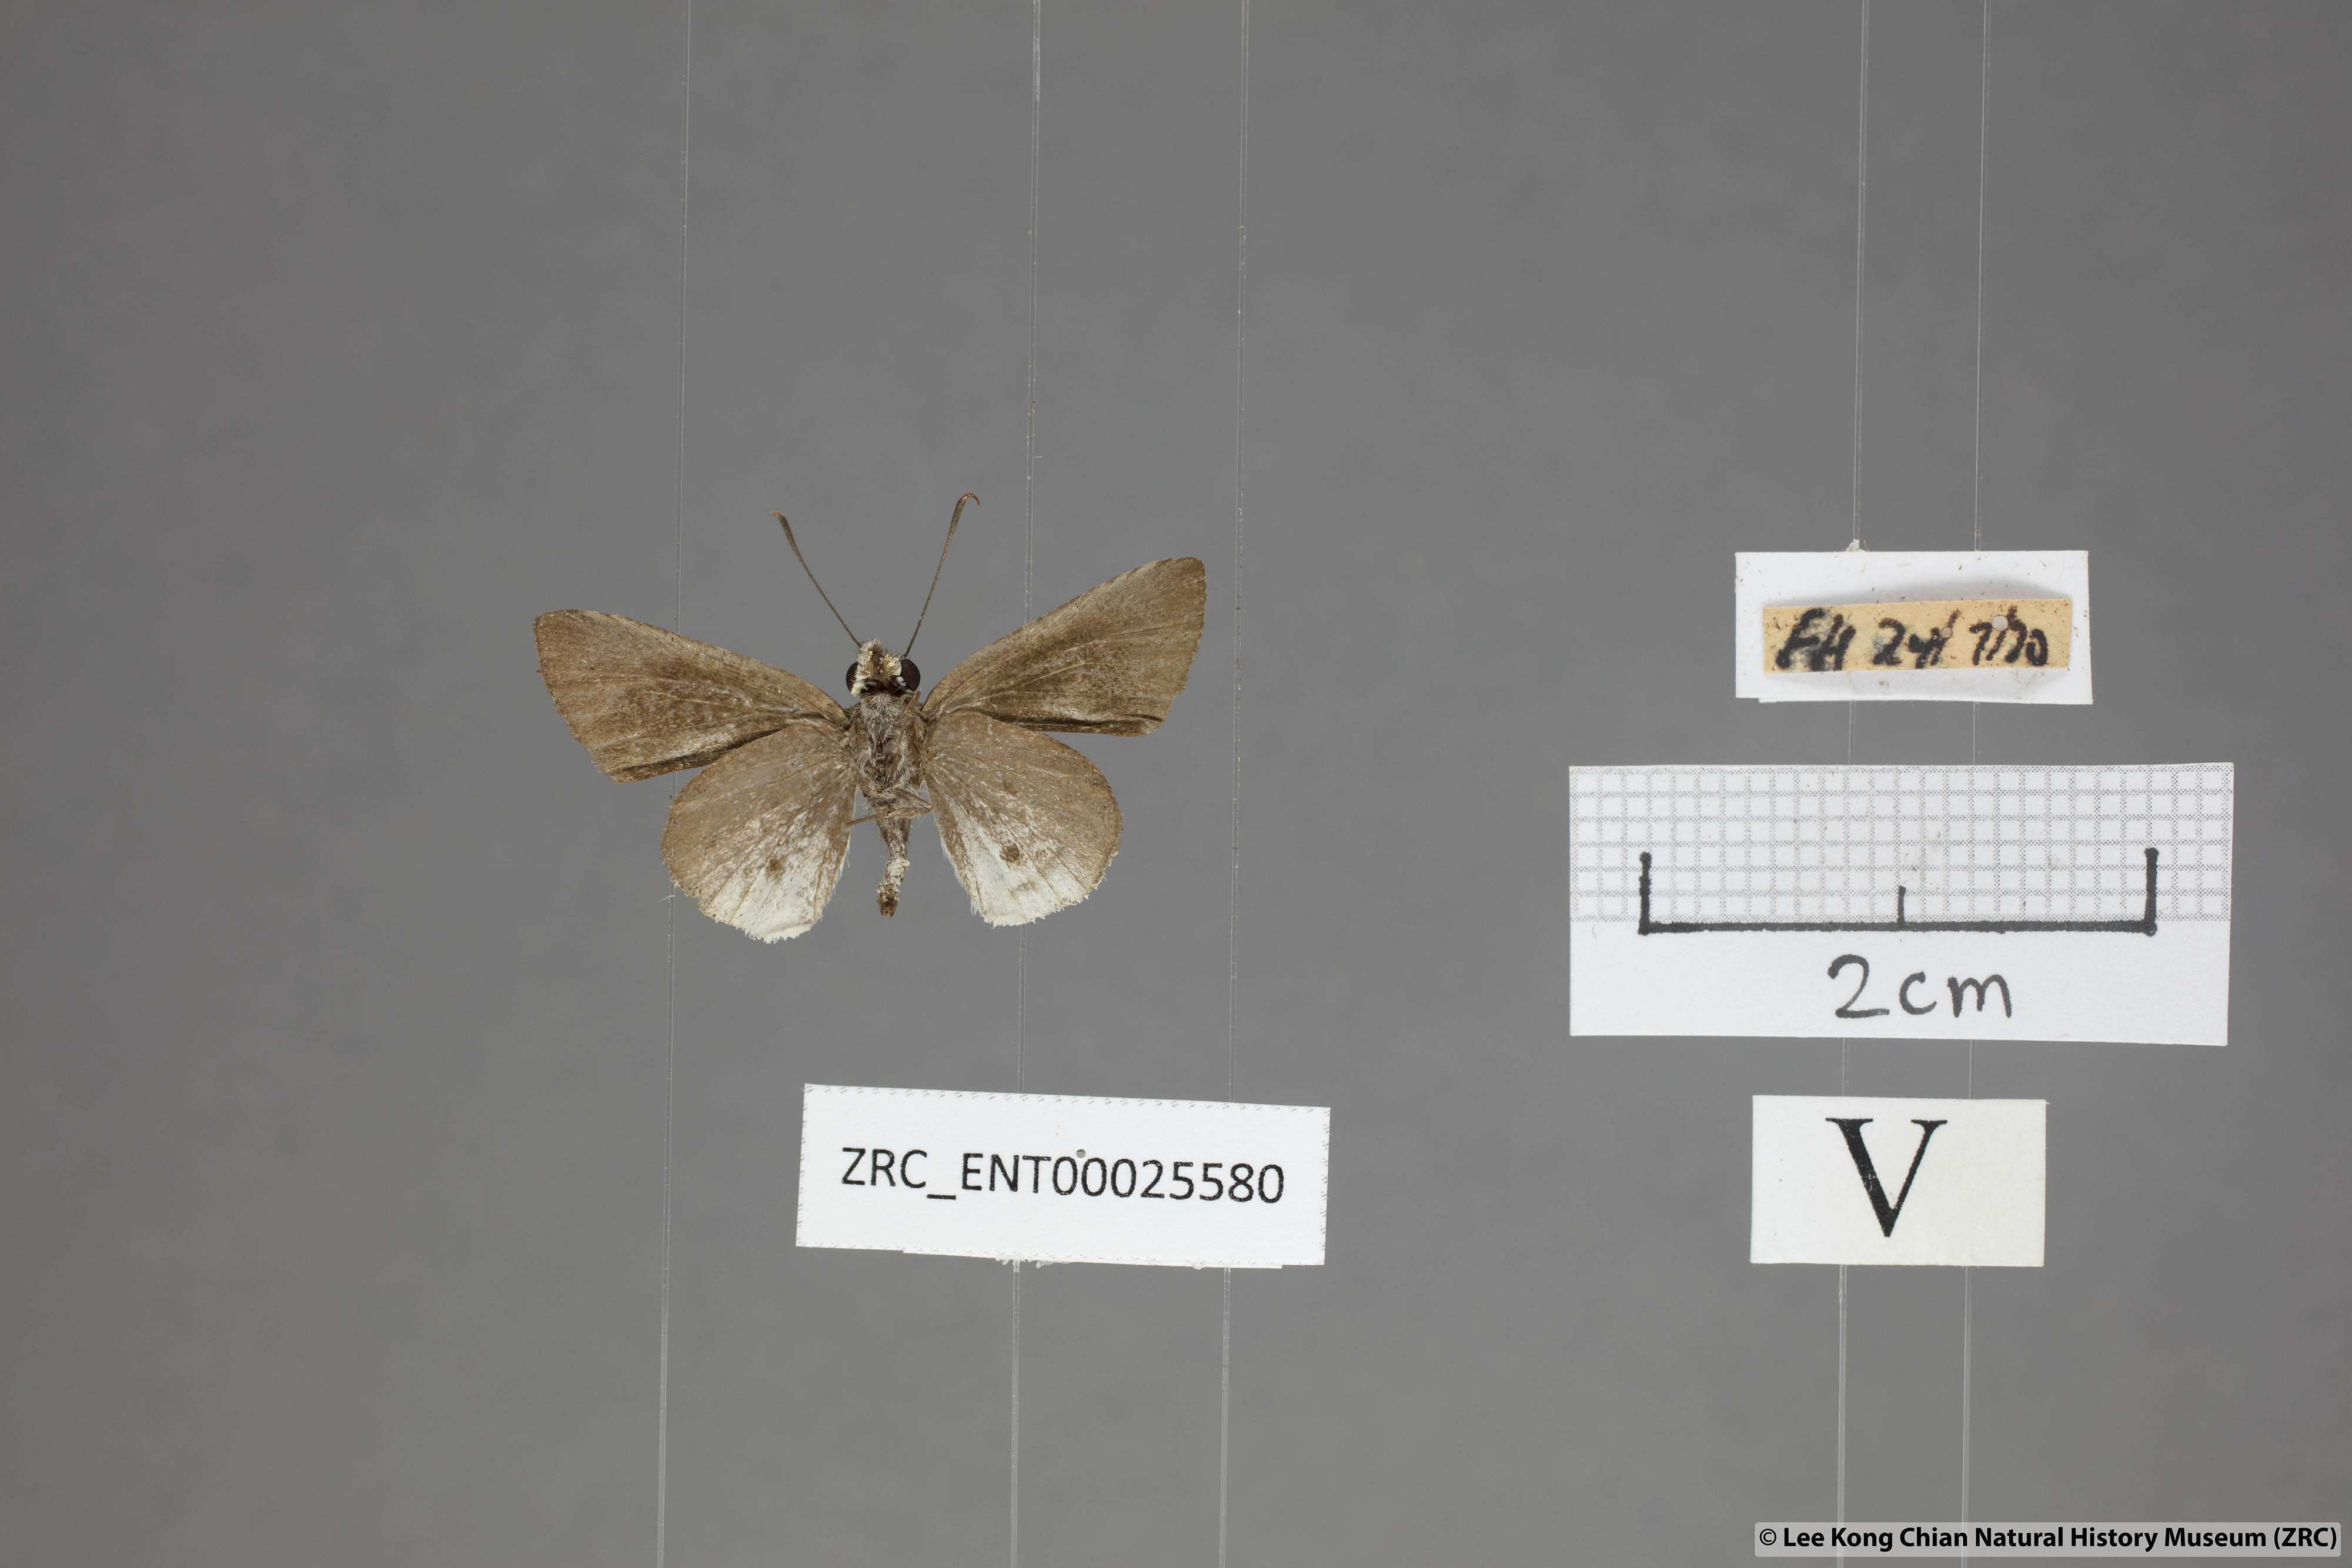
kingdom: Animalia
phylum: Arthropoda
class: Insecta
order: Lepidoptera
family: Hesperiidae
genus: Suastus
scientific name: Suastus everyx
